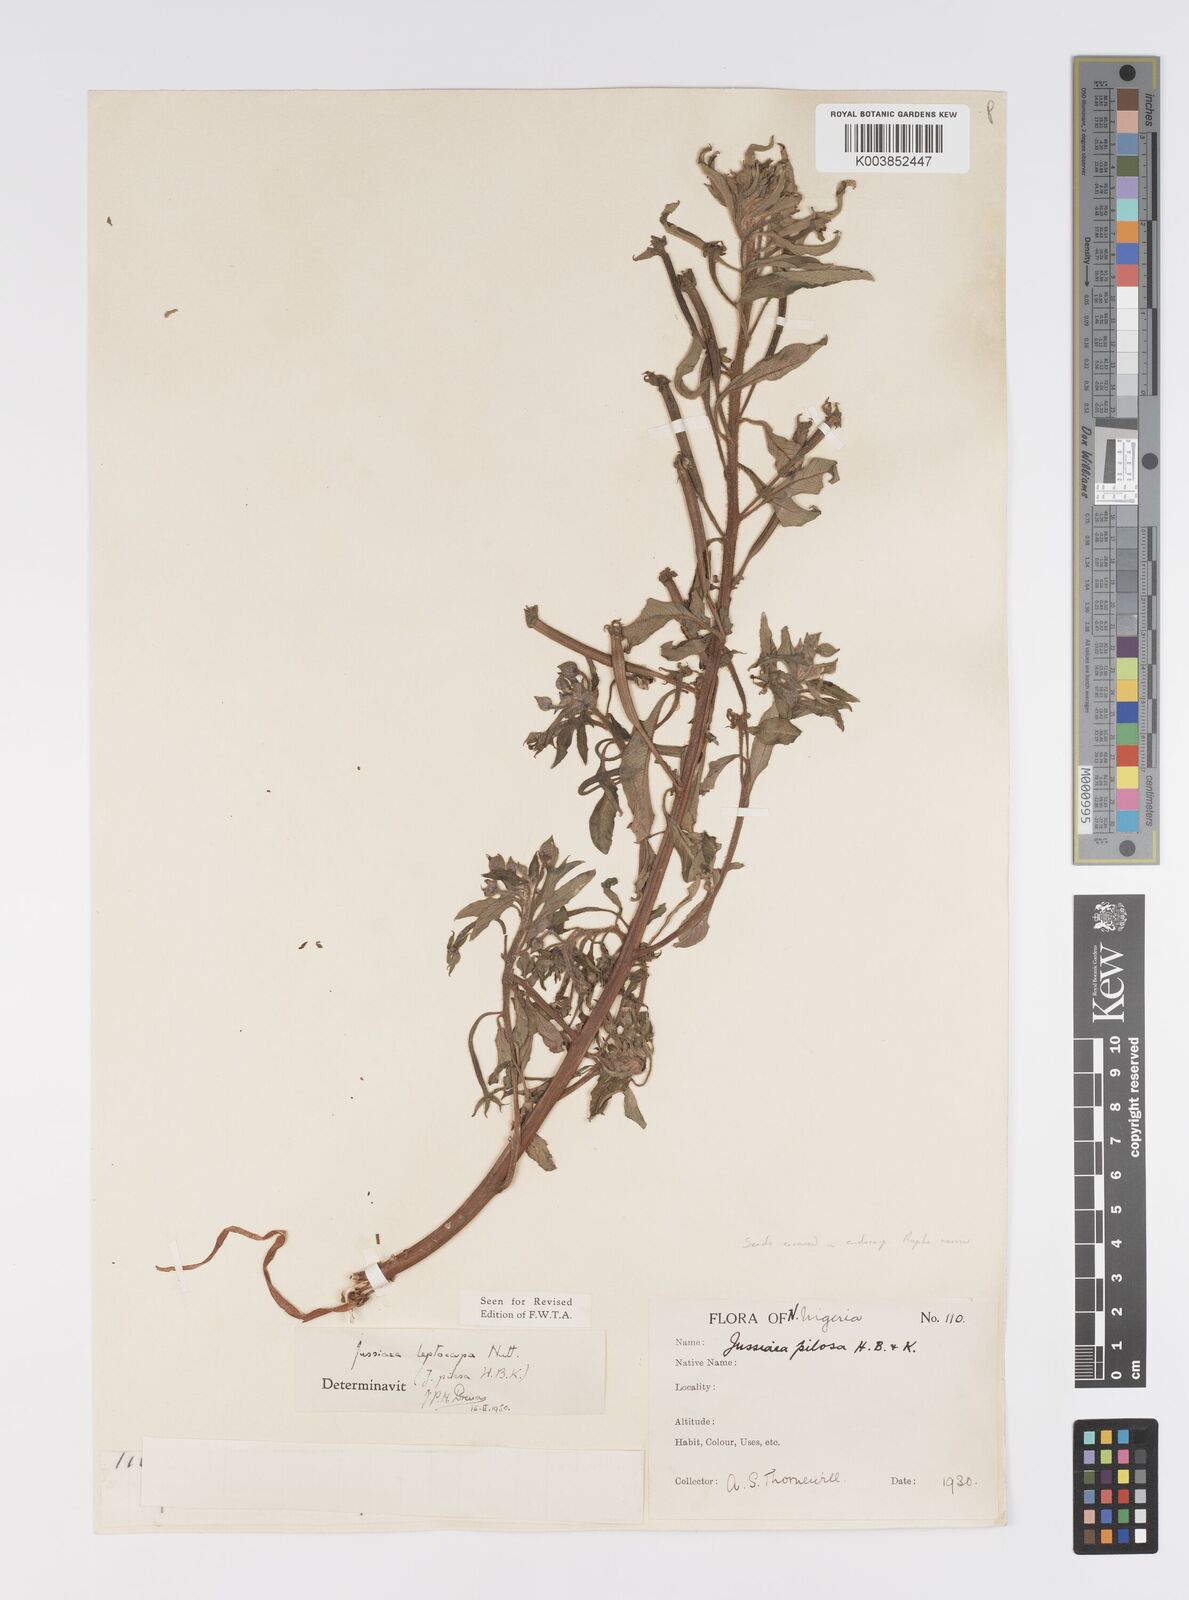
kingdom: Plantae
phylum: Tracheophyta
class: Magnoliopsida
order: Myrtales
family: Onagraceae
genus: Ludwigia
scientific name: Ludwigia leptocarpa
